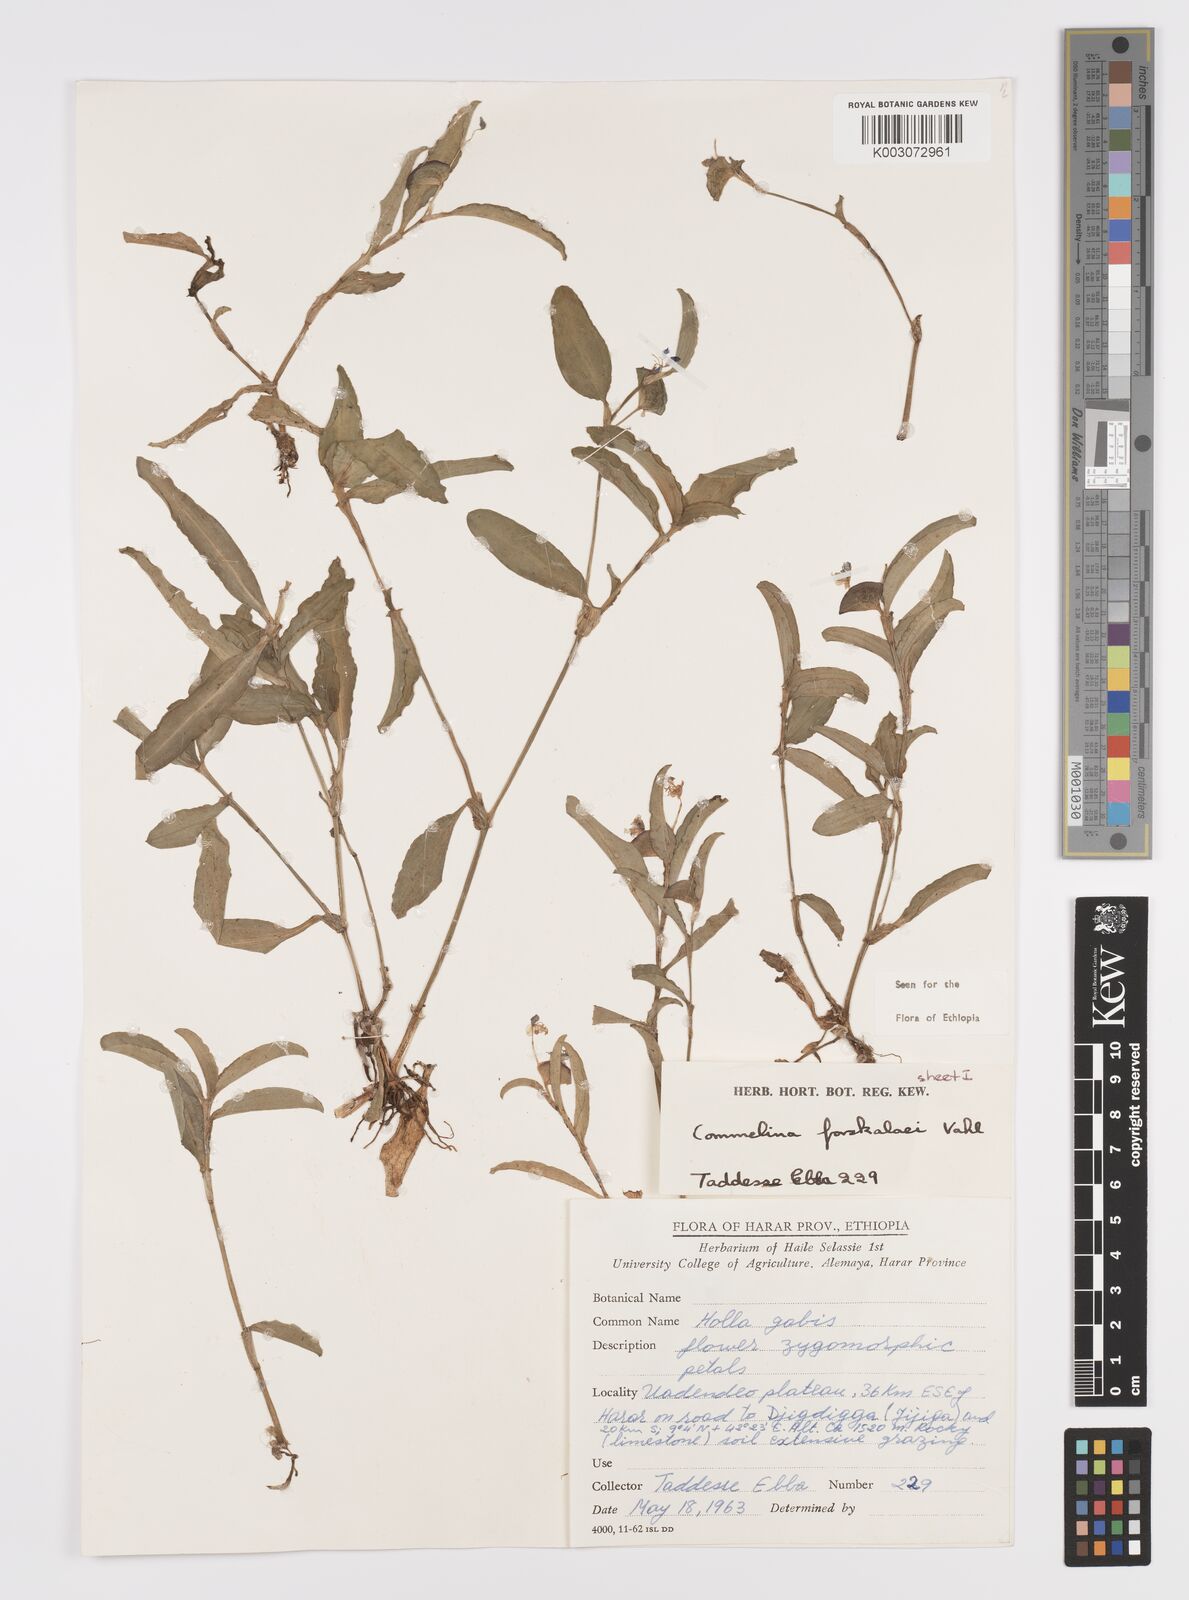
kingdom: Plantae
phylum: Tracheophyta
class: Liliopsida
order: Commelinales
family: Commelinaceae
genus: Commelina
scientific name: Commelina forskaolii
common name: Rat's ear
